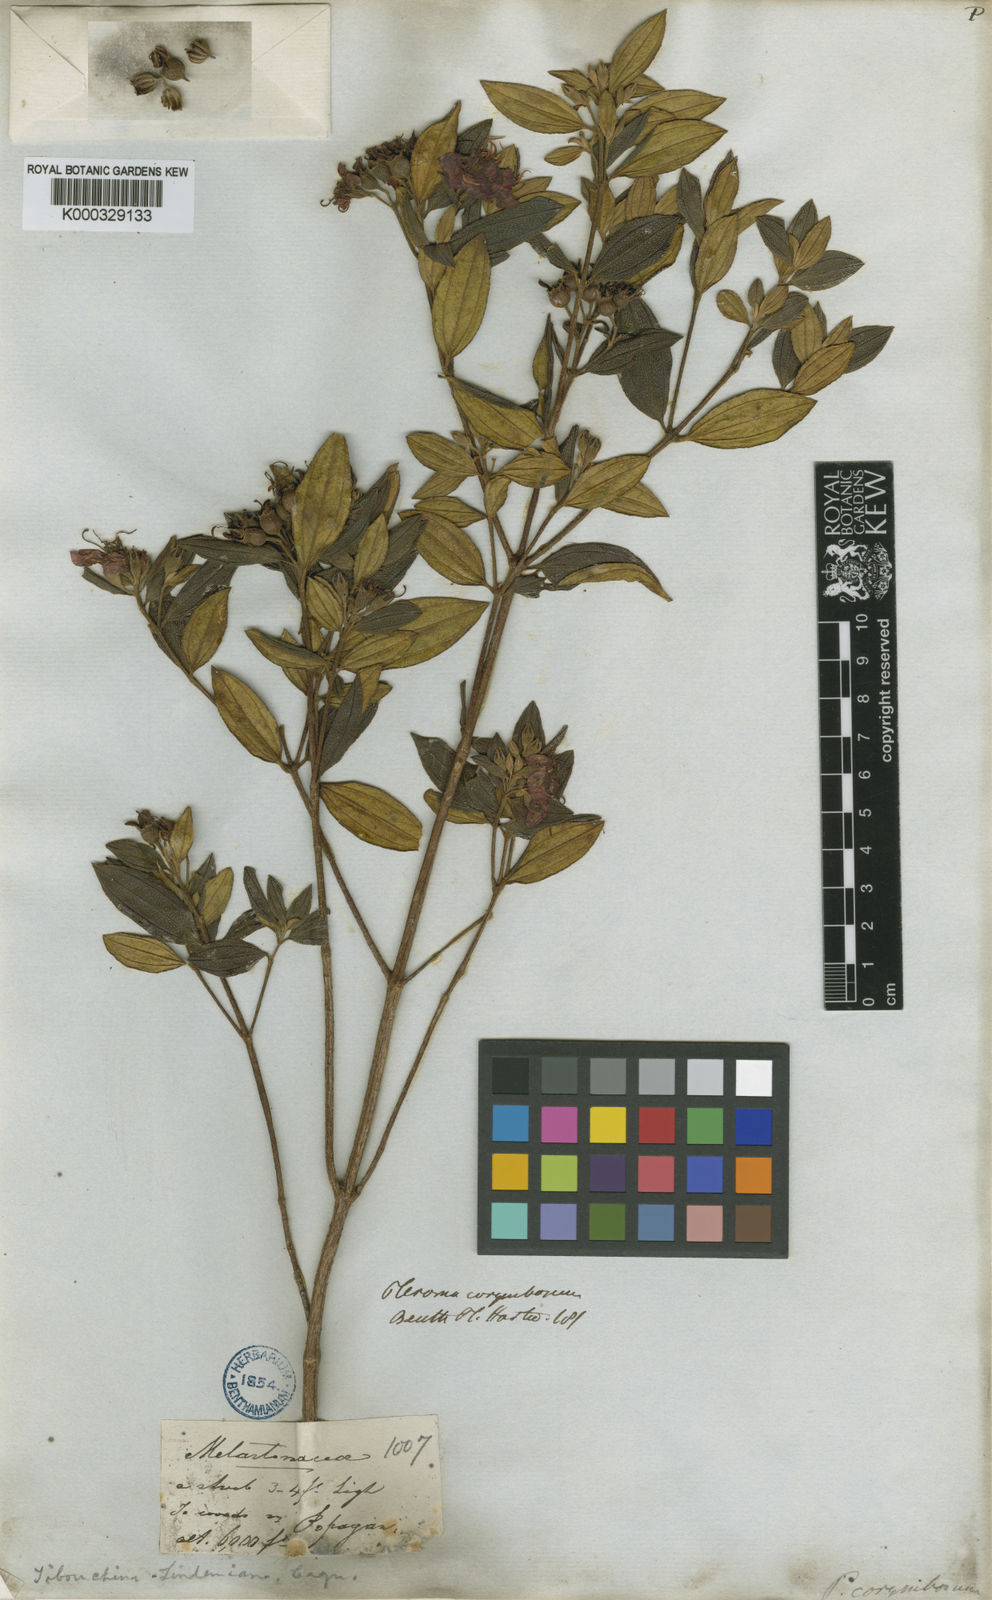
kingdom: Plantae
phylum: Tracheophyta
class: Magnoliopsida
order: Myrtales
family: Melastomataceae
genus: Pleroma
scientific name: Pleroma martiale
